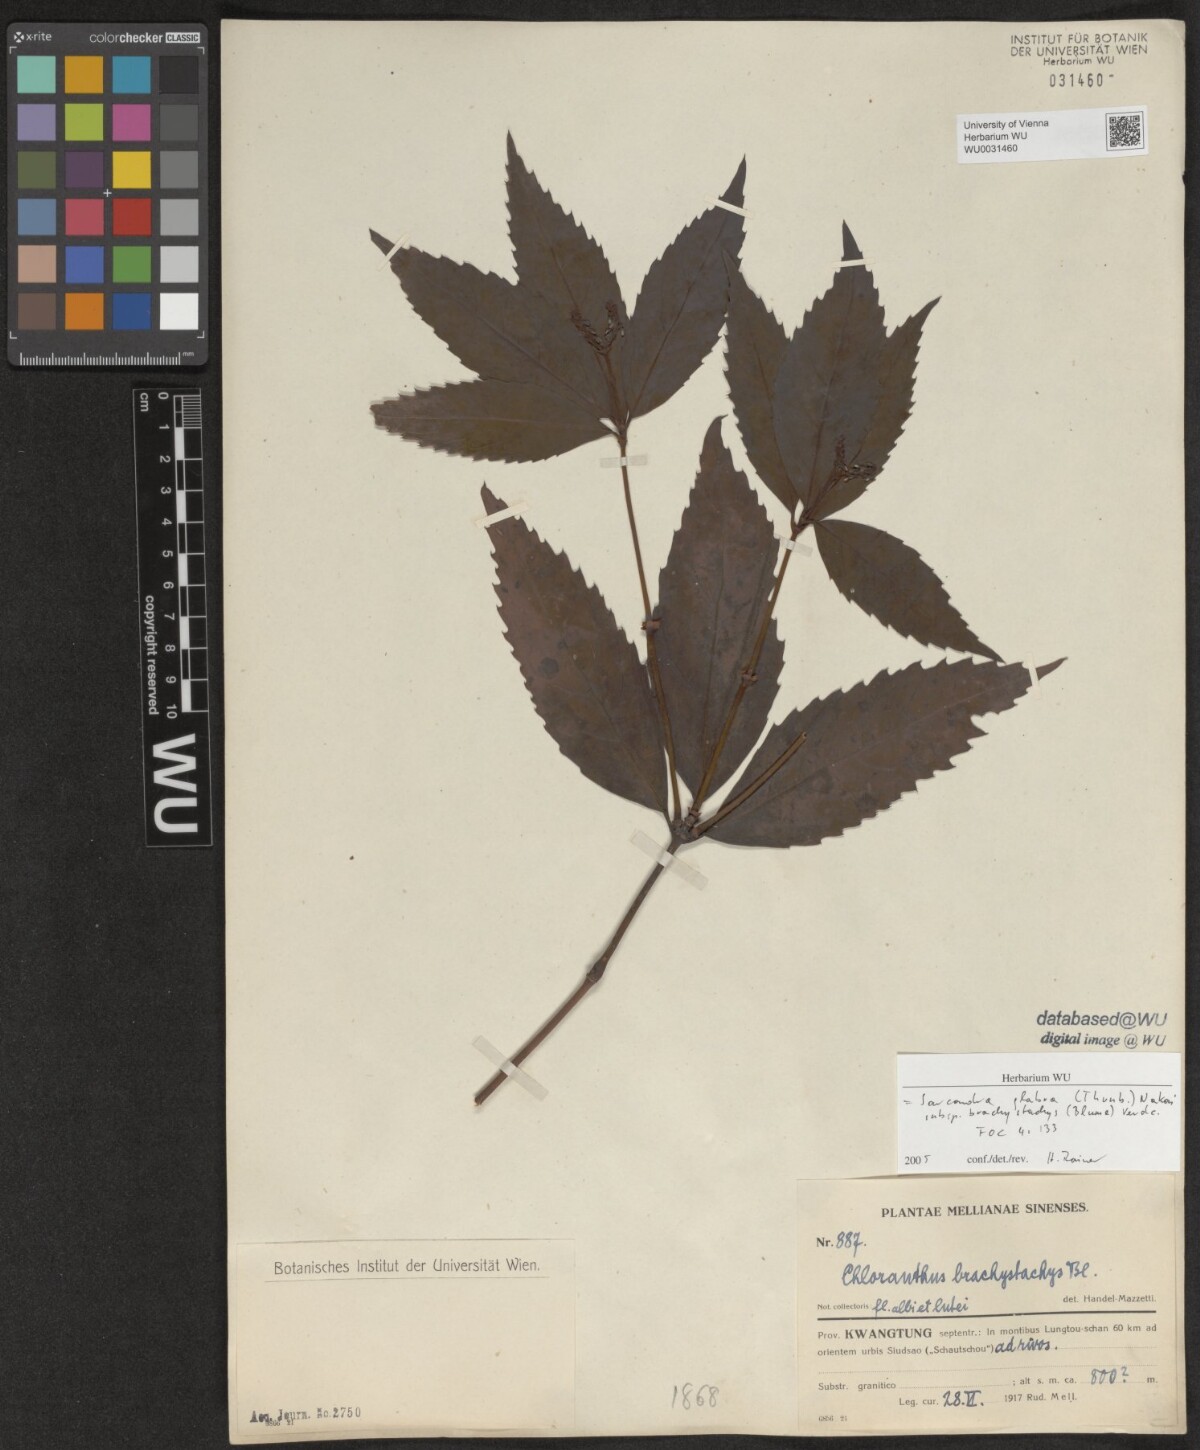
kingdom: Plantae
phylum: Tracheophyta
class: Magnoliopsida
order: Chloranthales
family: Chloranthaceae
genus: Sarcandra
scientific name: Sarcandra glabra
